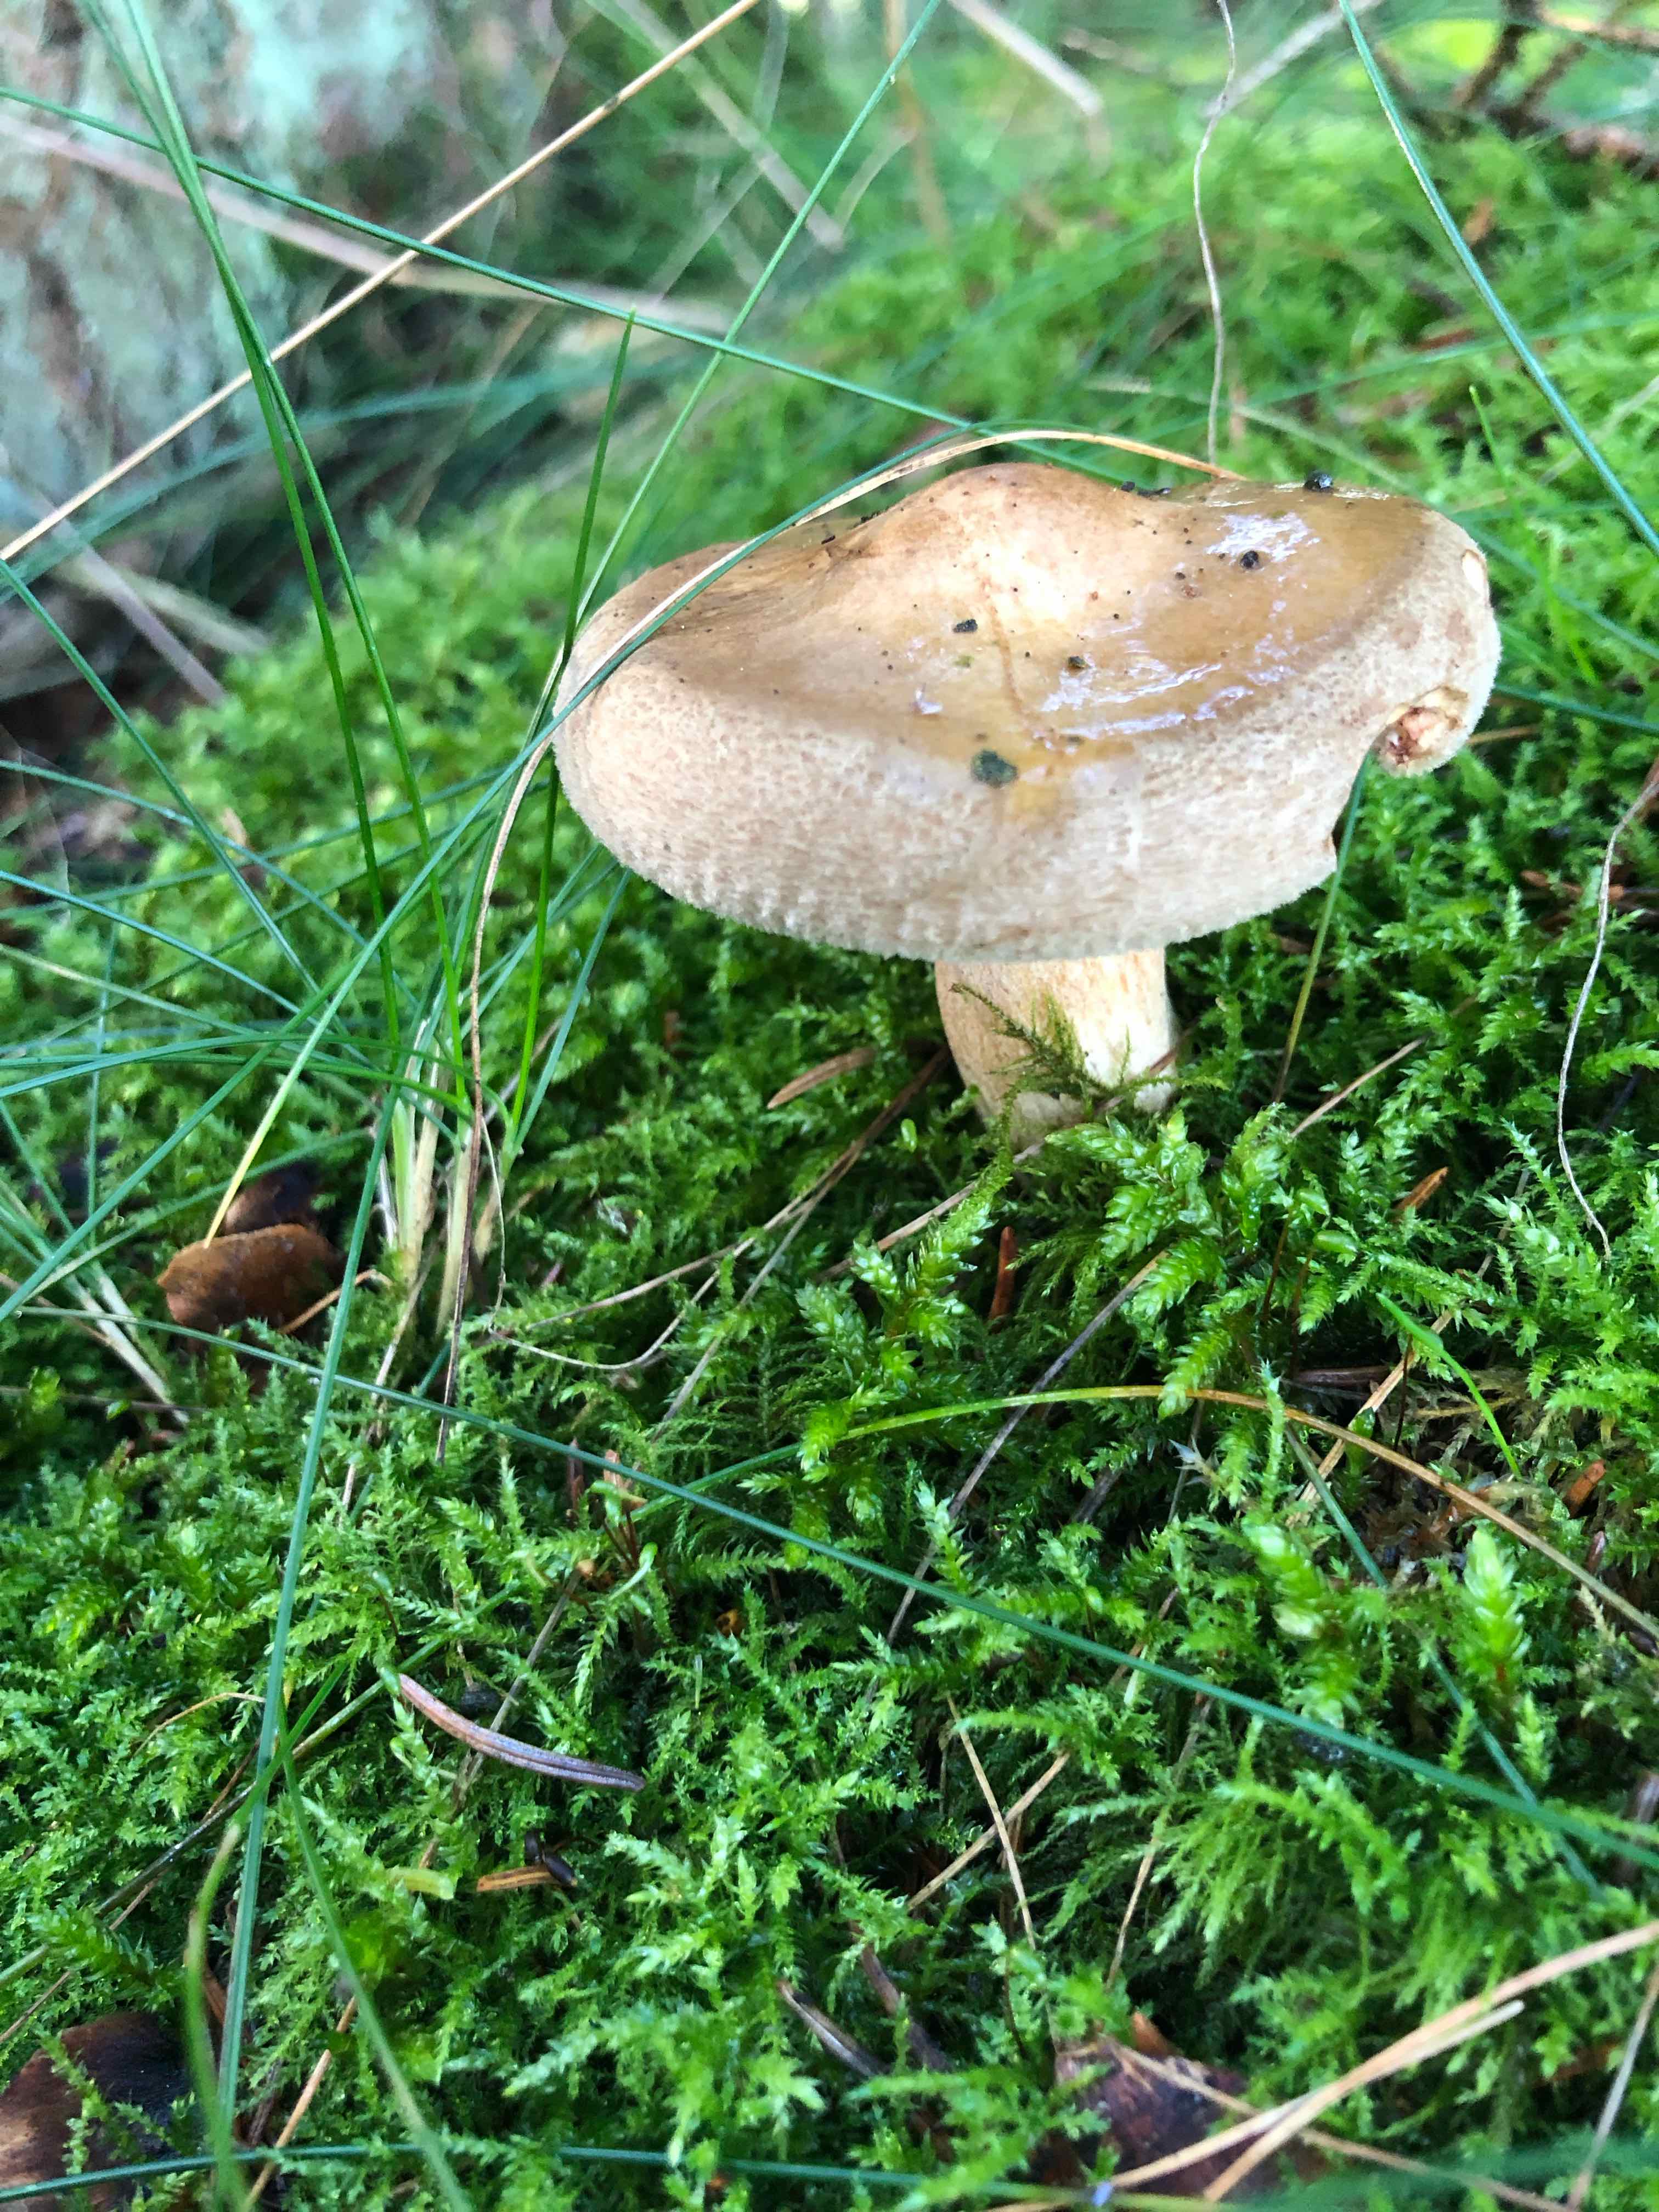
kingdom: Fungi
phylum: Basidiomycota
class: Agaricomycetes
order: Boletales
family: Paxillaceae
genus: Paxillus
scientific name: Paxillus involutus
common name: almindelig netbladhat
